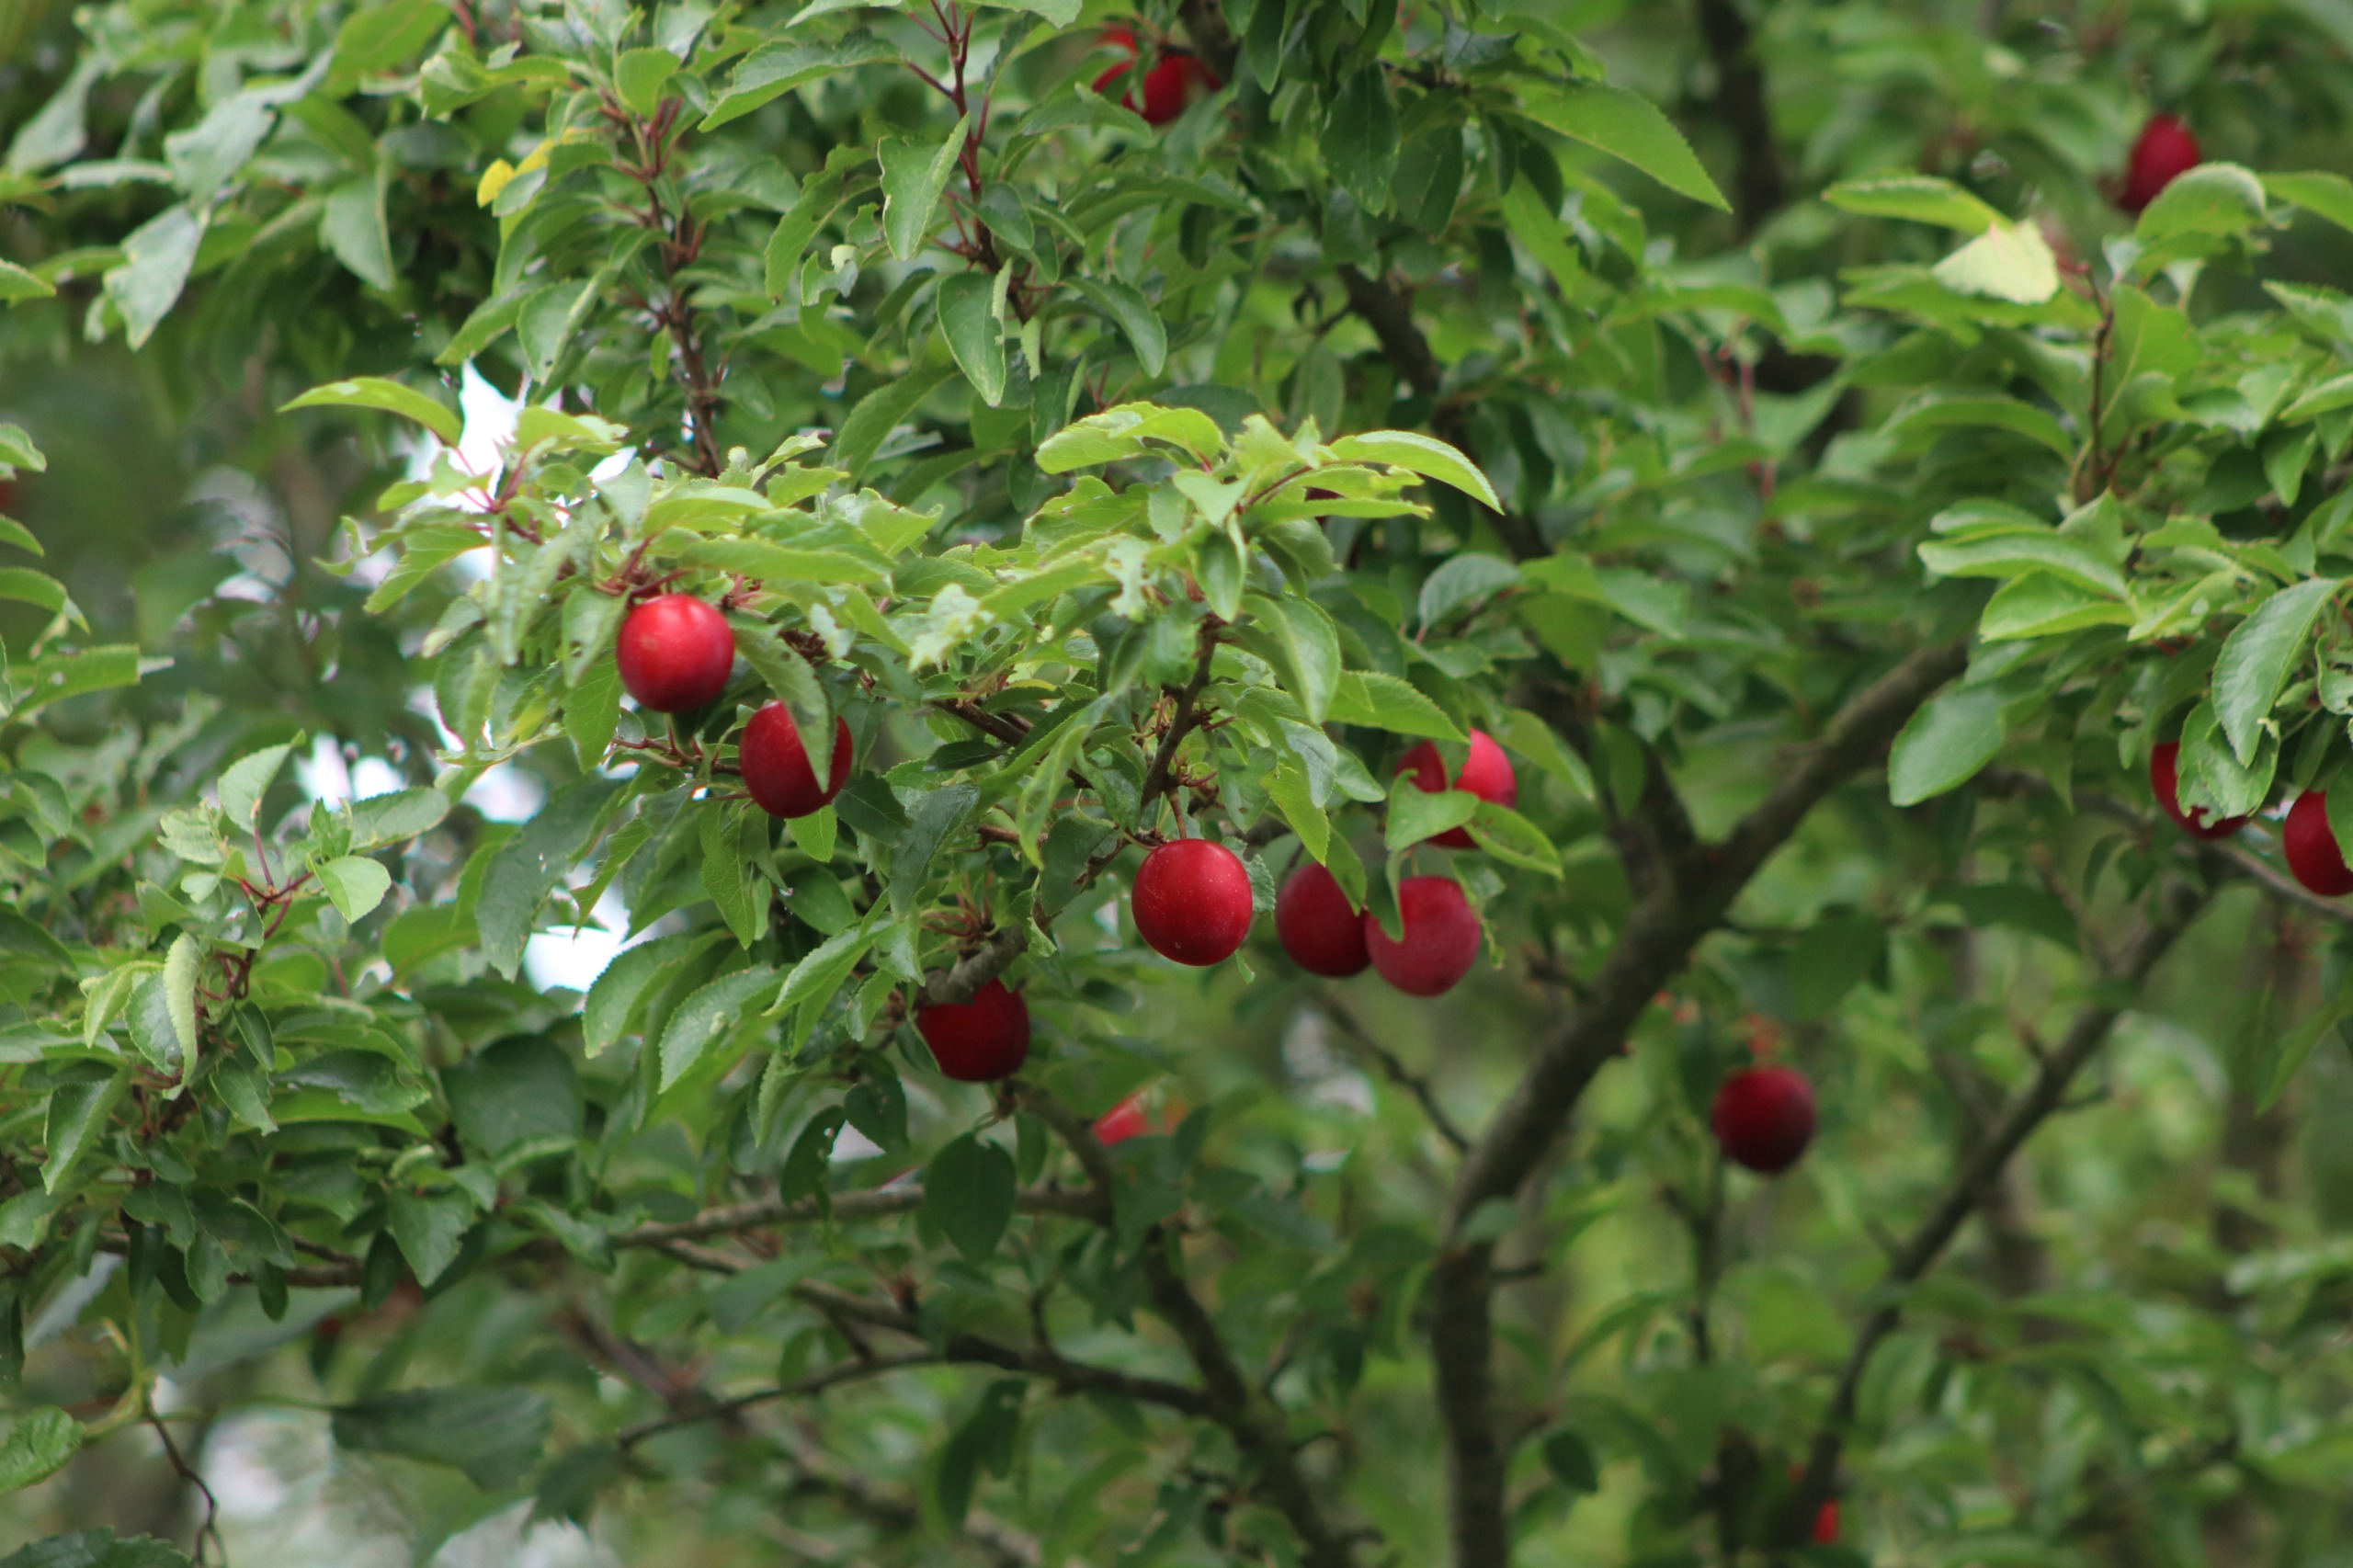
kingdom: Plantae
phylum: Tracheophyta
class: Magnoliopsida
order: Rosales
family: Rosaceae
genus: Prunus
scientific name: Prunus cerasifera
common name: Mirabel
